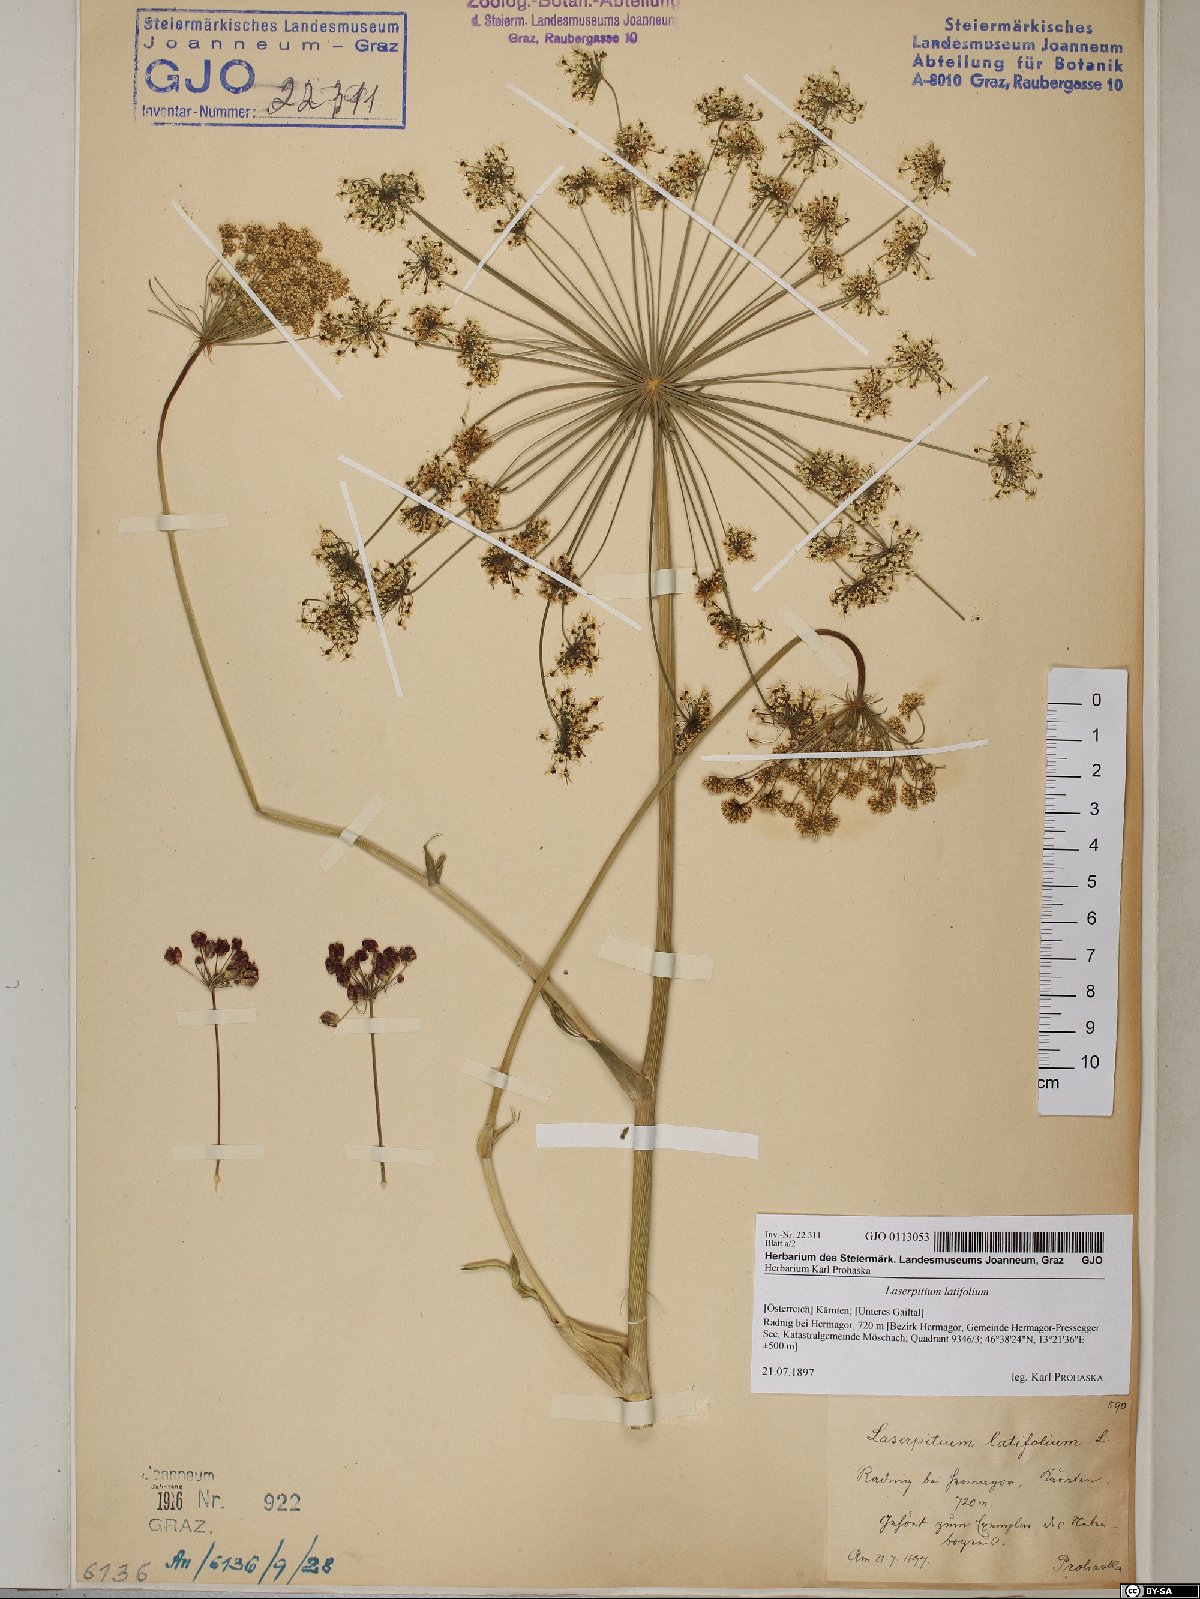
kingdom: Plantae
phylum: Tracheophyta
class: Magnoliopsida
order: Apiales
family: Apiaceae
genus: Laserpitium
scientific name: Laserpitium latifolium
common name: Broadleaf sermountain
